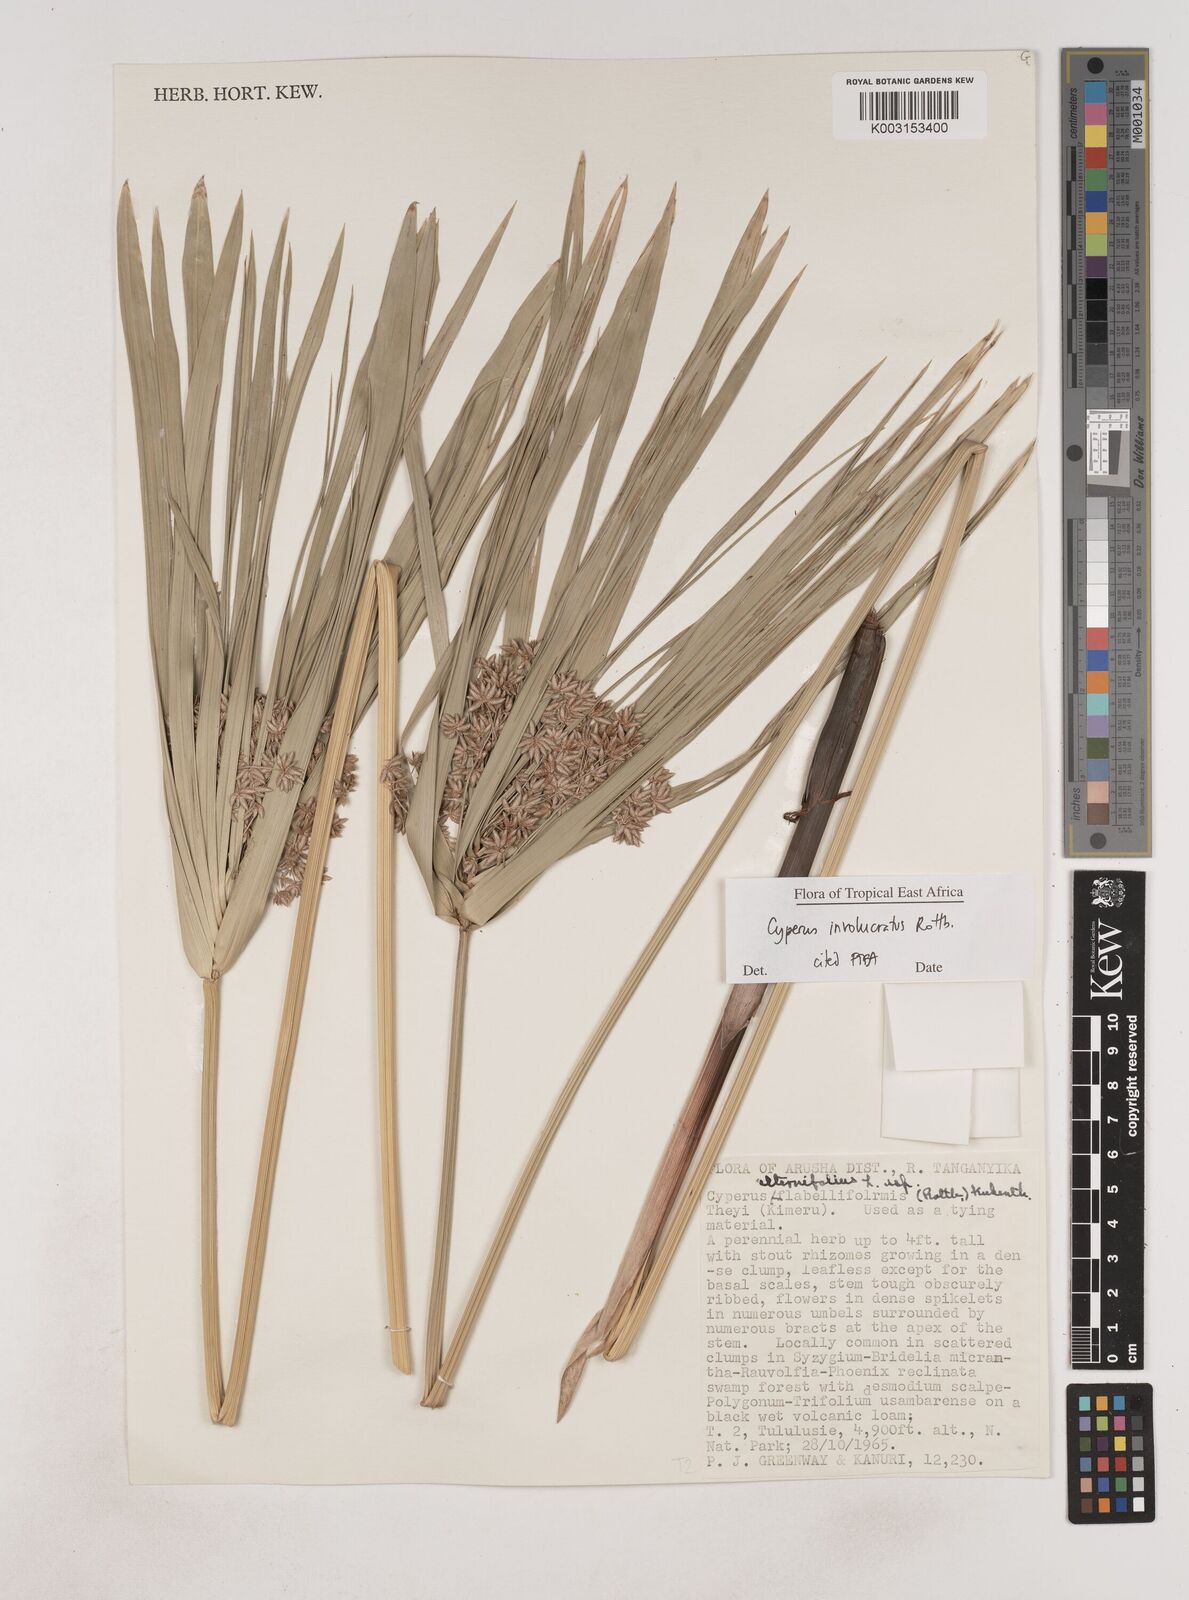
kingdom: Plantae
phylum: Tracheophyta
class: Liliopsida
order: Poales
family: Cyperaceae
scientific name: Cyperaceae
